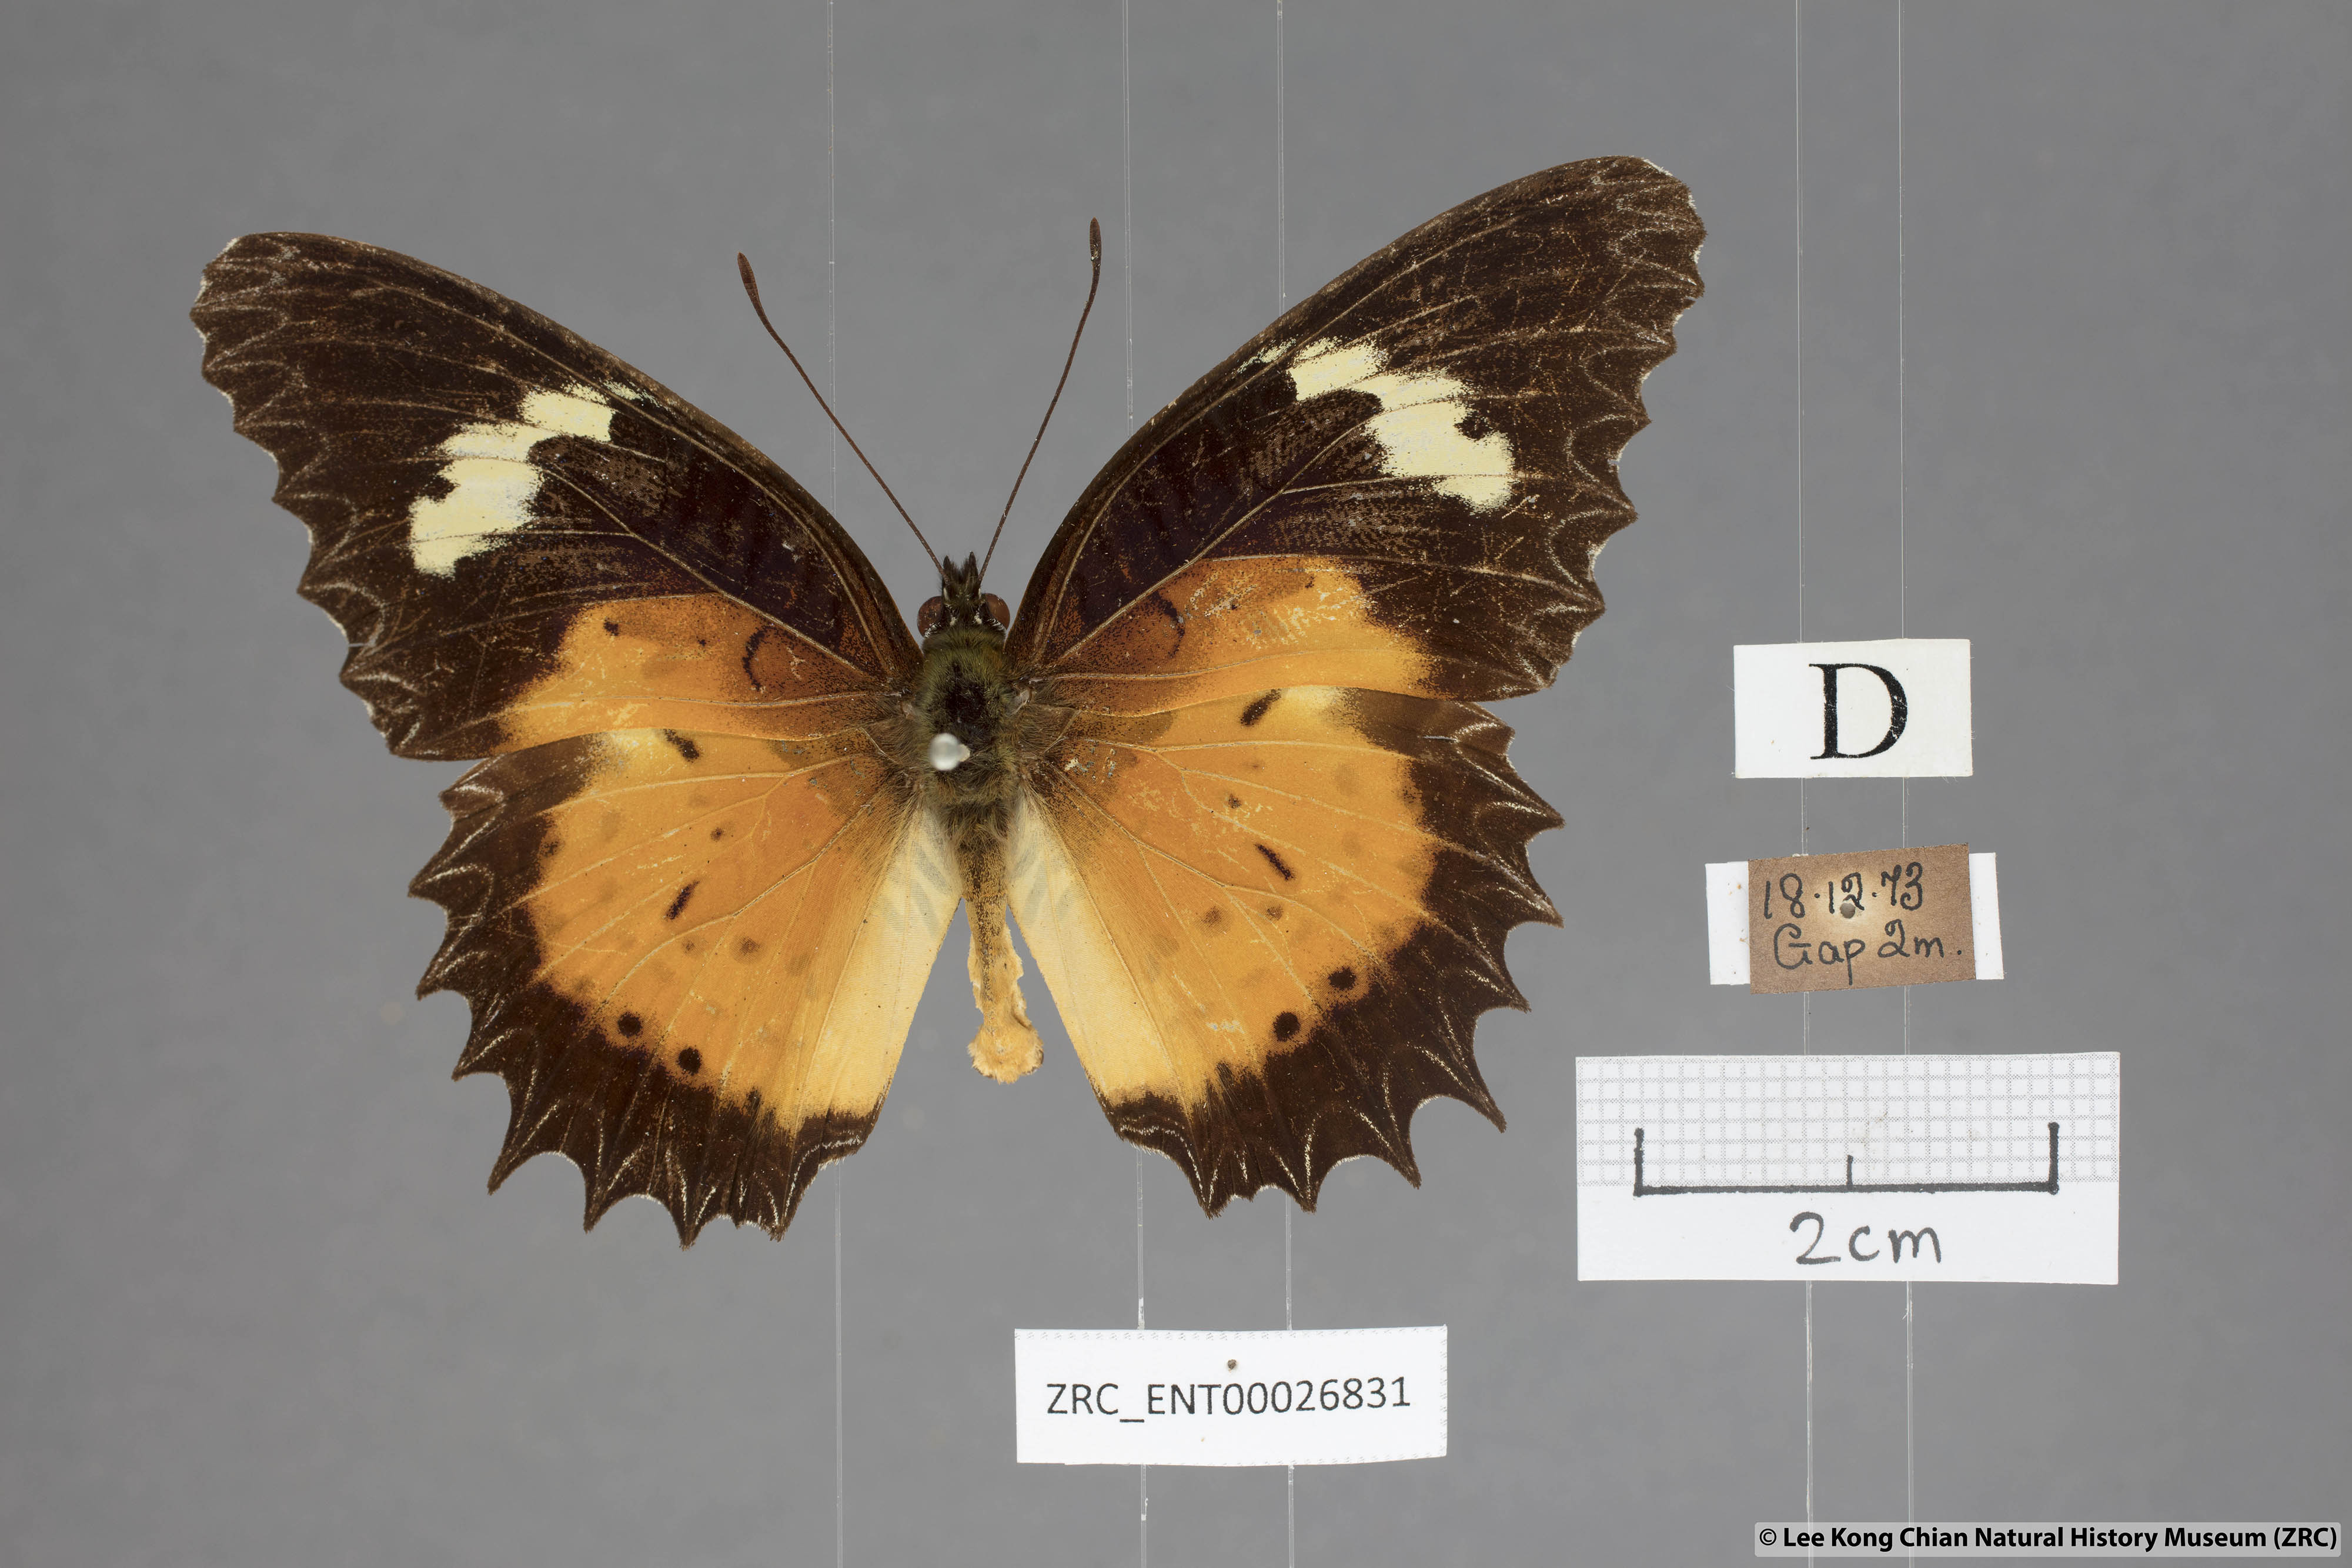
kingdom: Animalia
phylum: Arthropoda
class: Insecta
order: Lepidoptera
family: Nymphalidae
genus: Cethosia
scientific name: Cethosia hypsea
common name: Malayan lacewing butterfly
